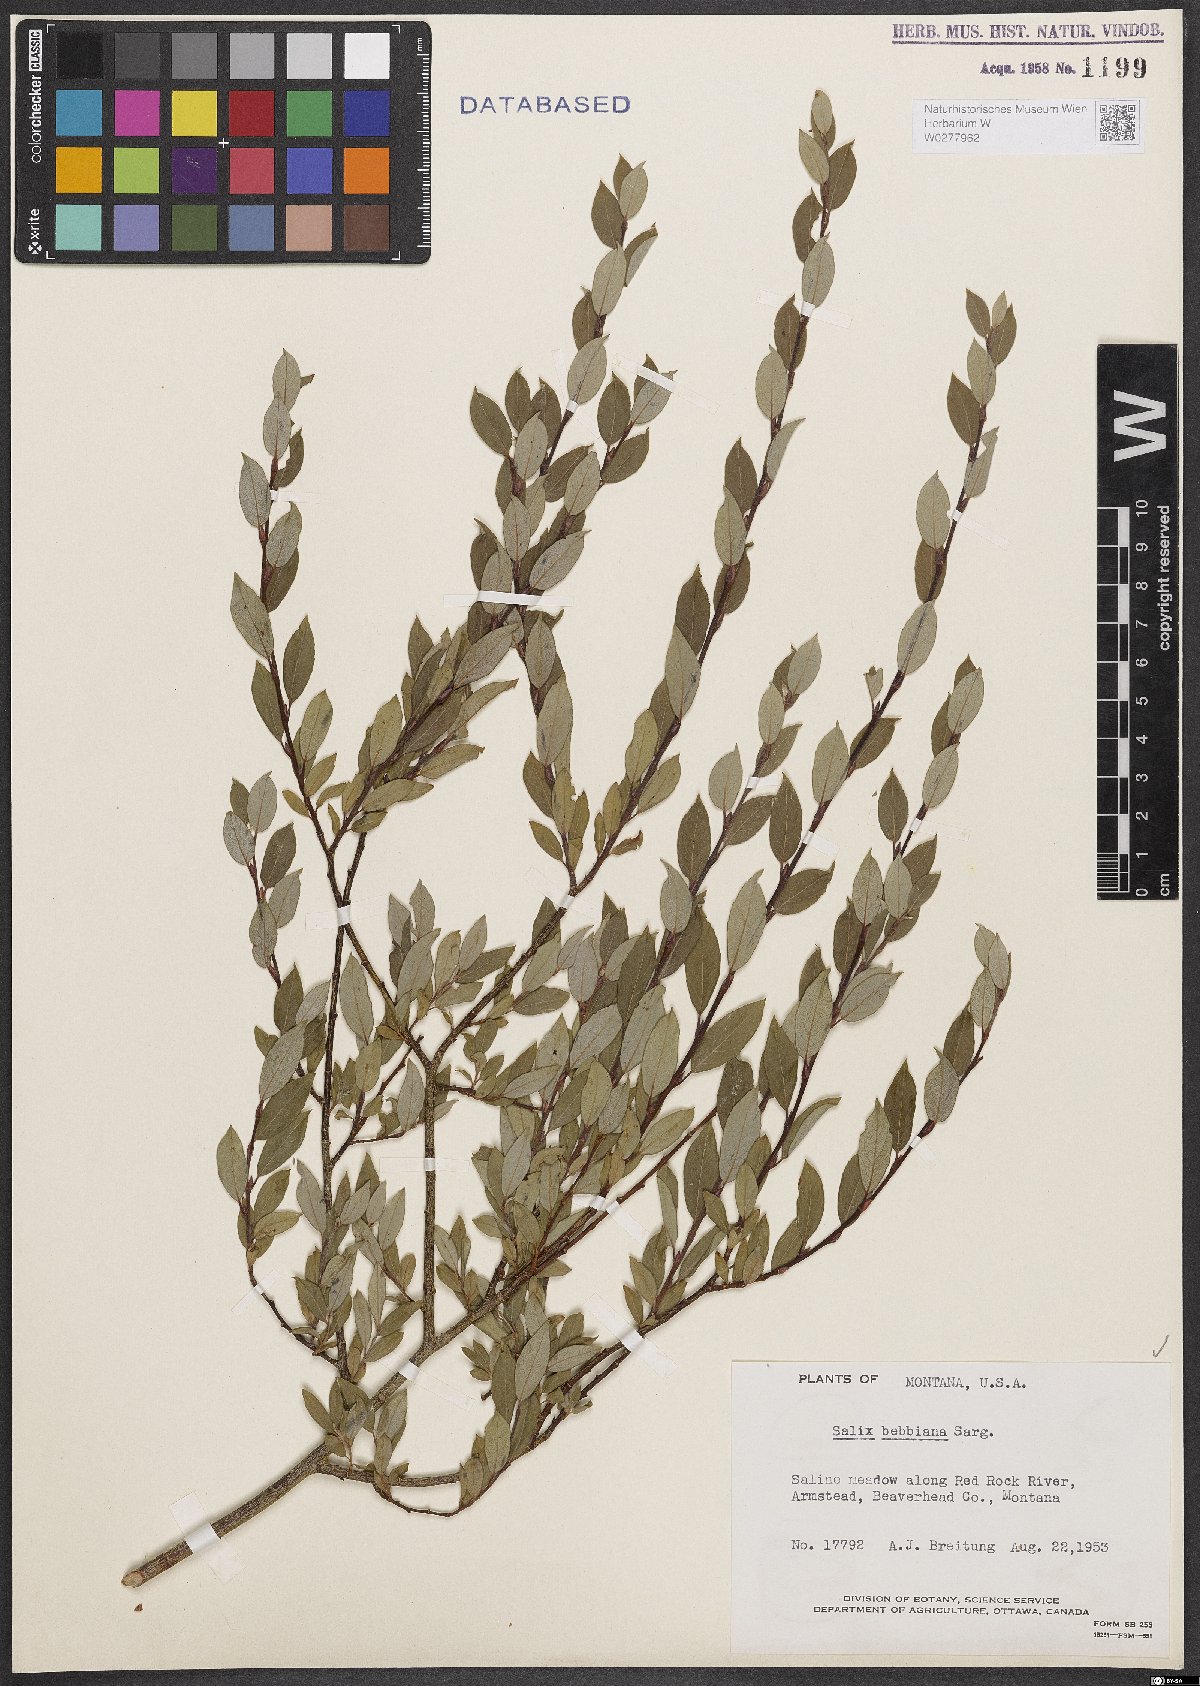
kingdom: Plantae
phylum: Tracheophyta
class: Magnoliopsida
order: Malpighiales
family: Salicaceae
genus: Salix
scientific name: Salix bebbiana
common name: Bebb's willow
